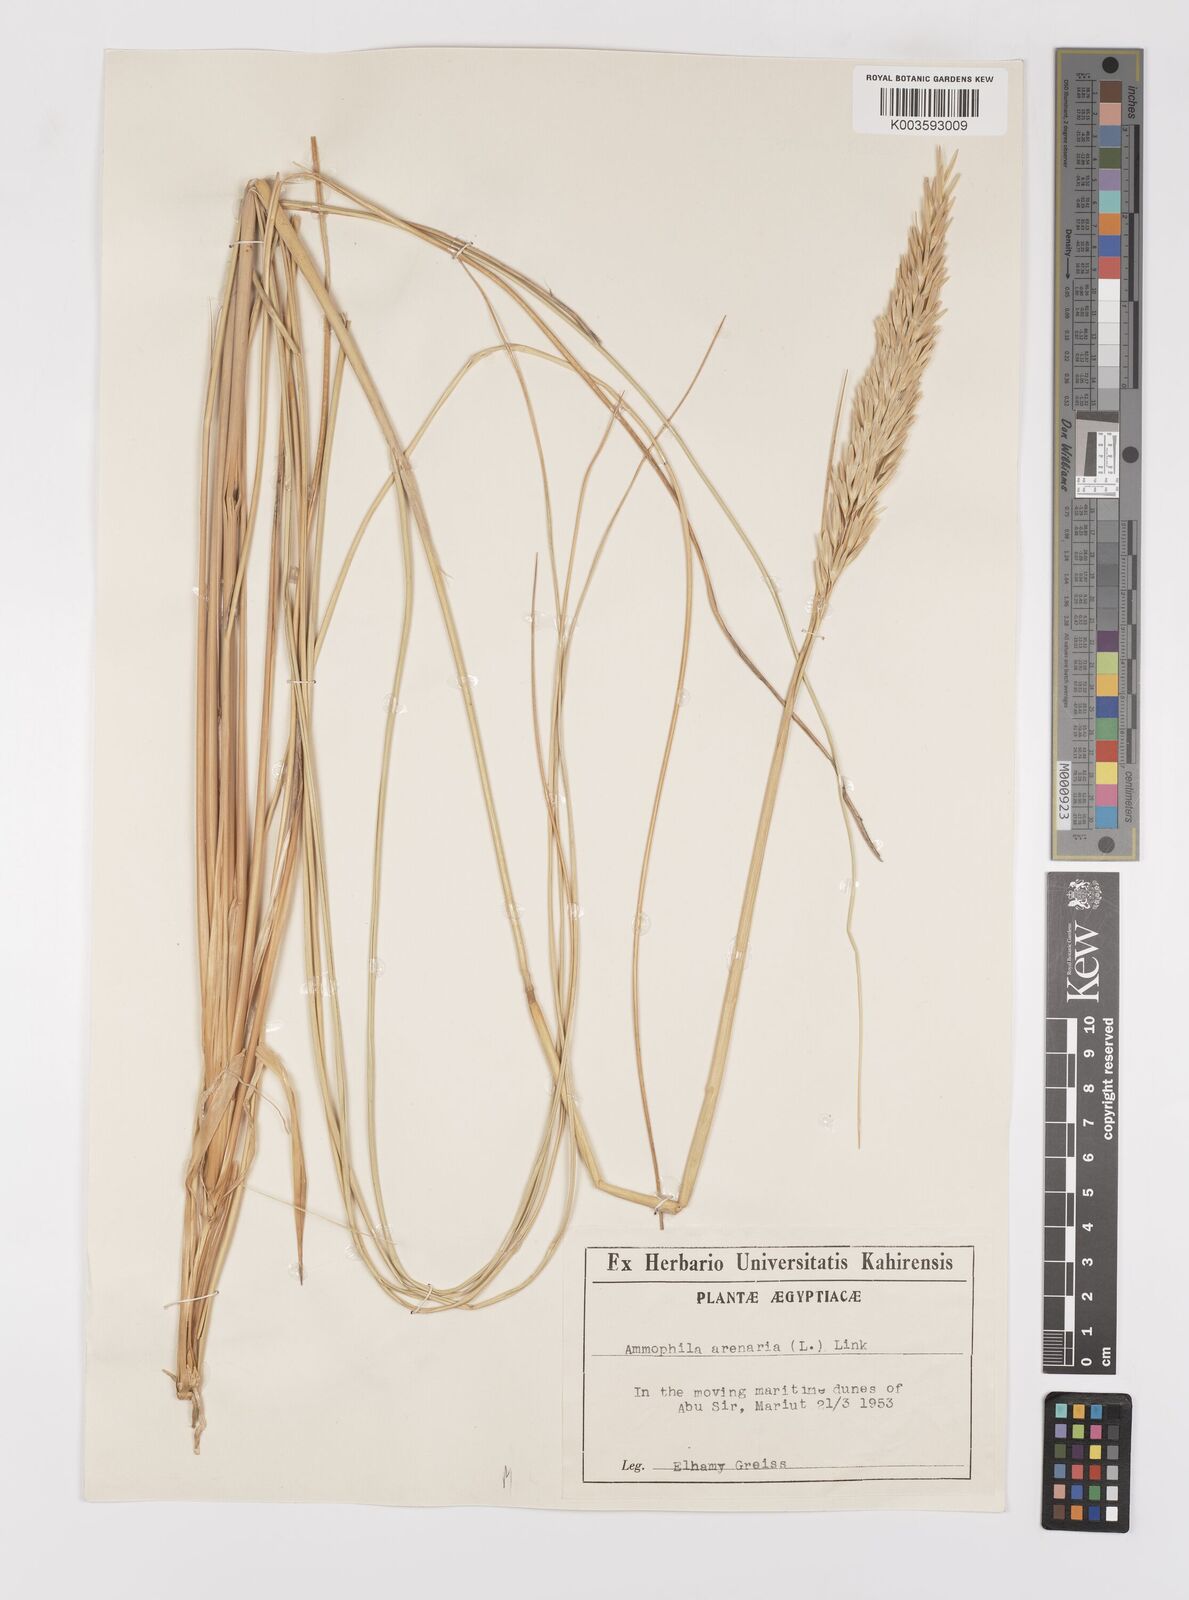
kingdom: Plantae
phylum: Tracheophyta
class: Liliopsida
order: Poales
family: Poaceae
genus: Calamagrostis
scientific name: Calamagrostis arenaria
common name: European beachgrass
